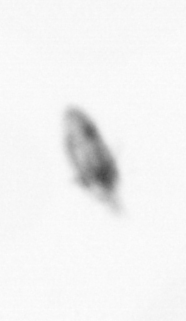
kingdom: Animalia
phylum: Arthropoda
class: Copepoda
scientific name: Copepoda
